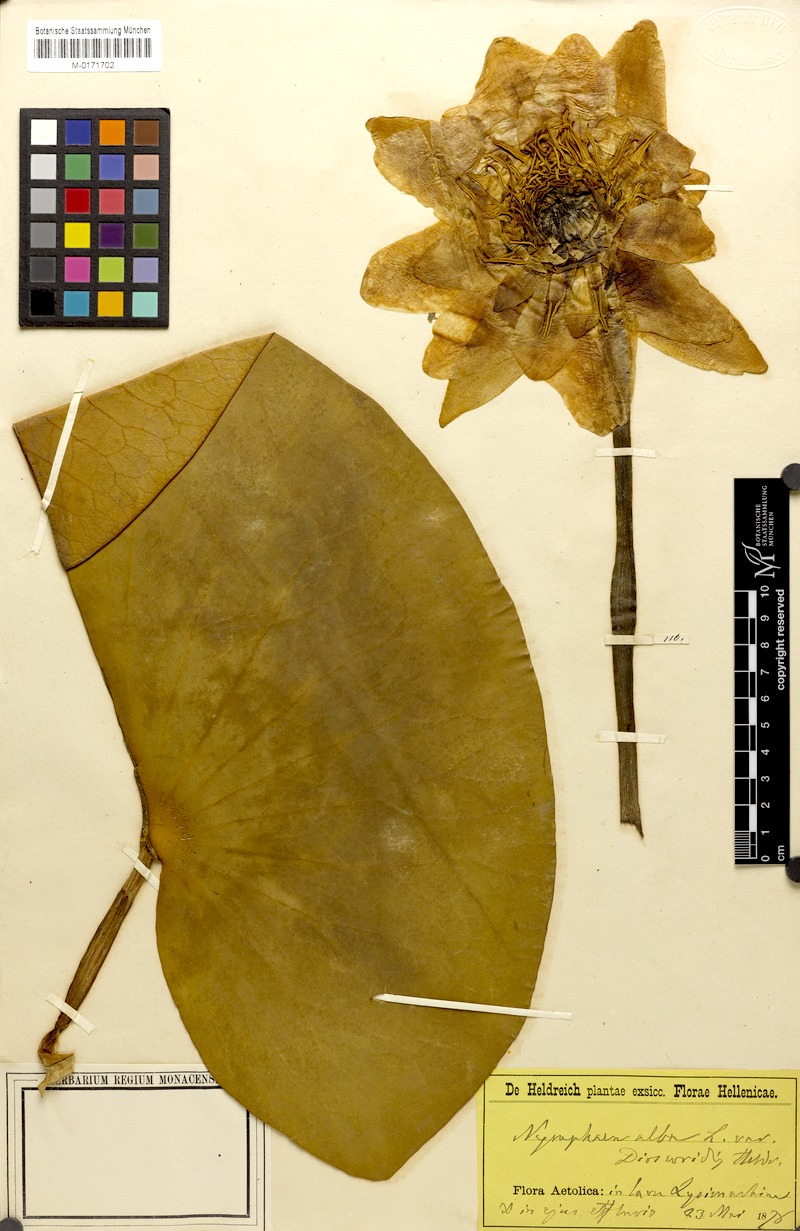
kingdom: Plantae
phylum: Tracheophyta
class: Magnoliopsida
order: Nymphaeales
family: Nymphaeaceae
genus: Nymphaea
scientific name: Nymphaea alba
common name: White water-lily
